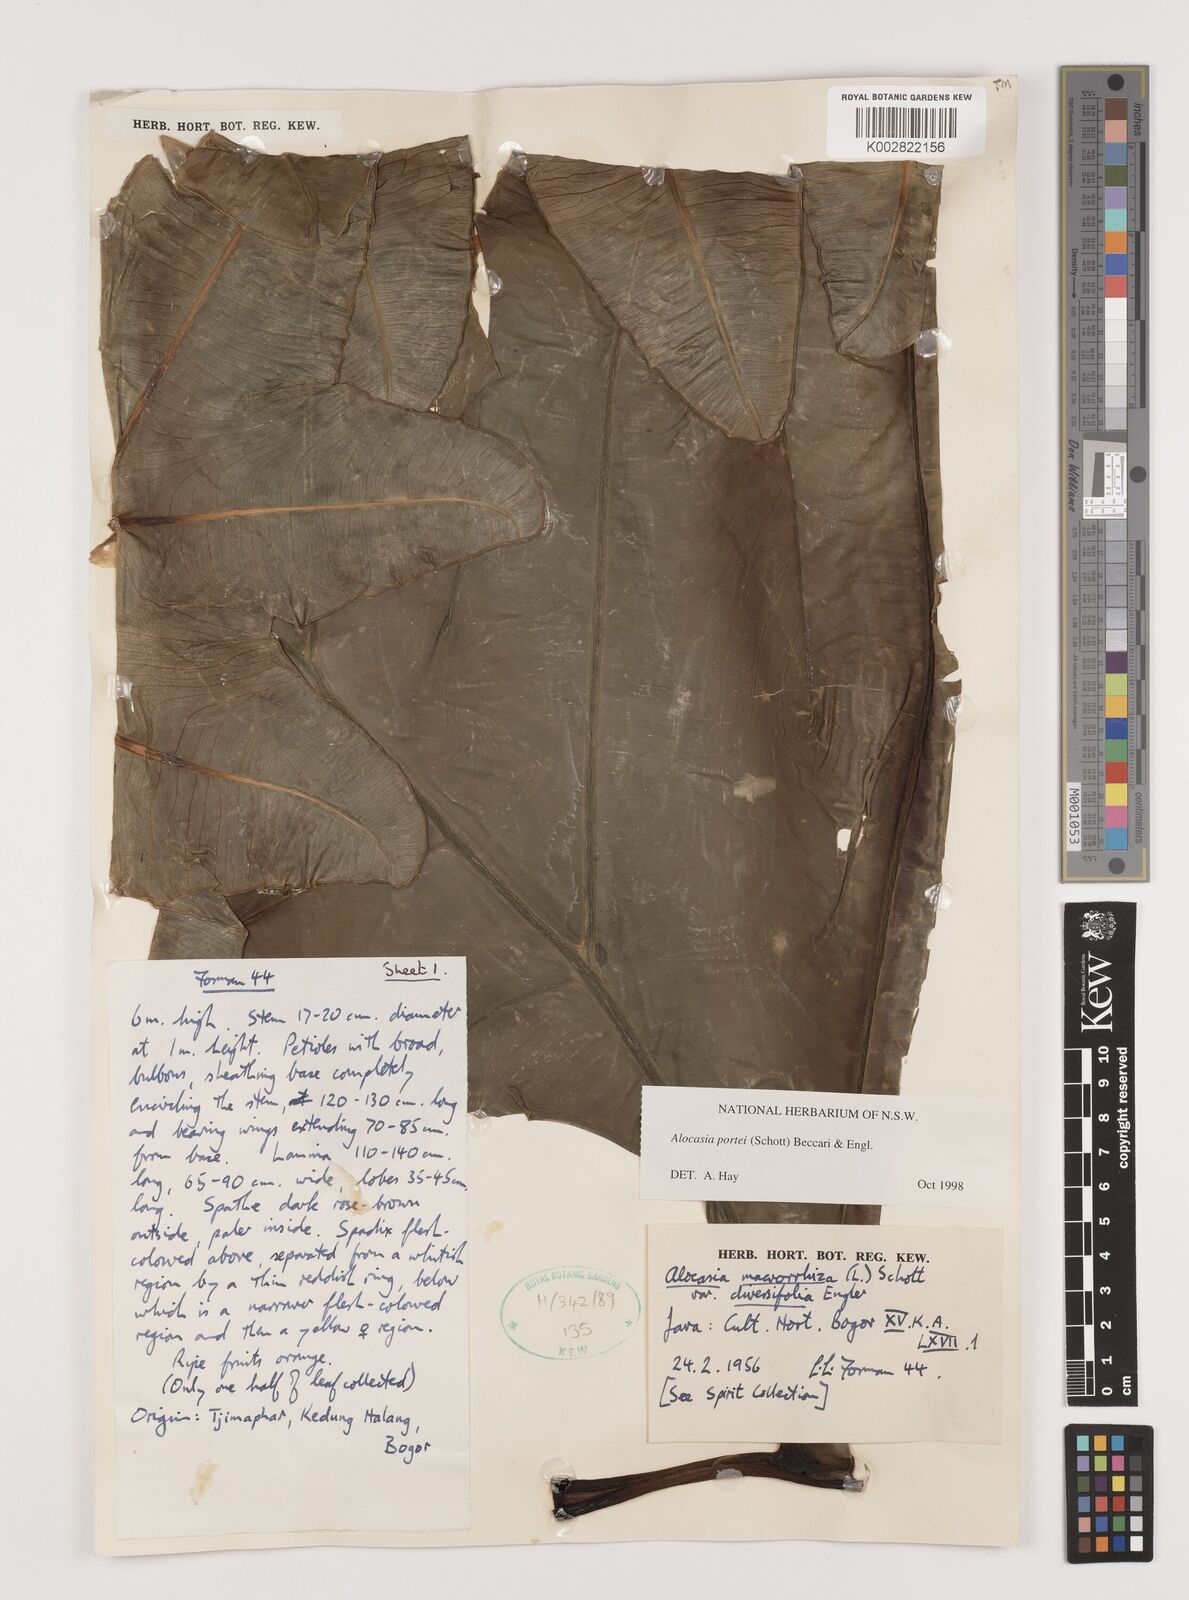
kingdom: Plantae
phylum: Tracheophyta
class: Liliopsida
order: Alismatales
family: Araceae
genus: Alocasia
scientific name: Alocasia portei
